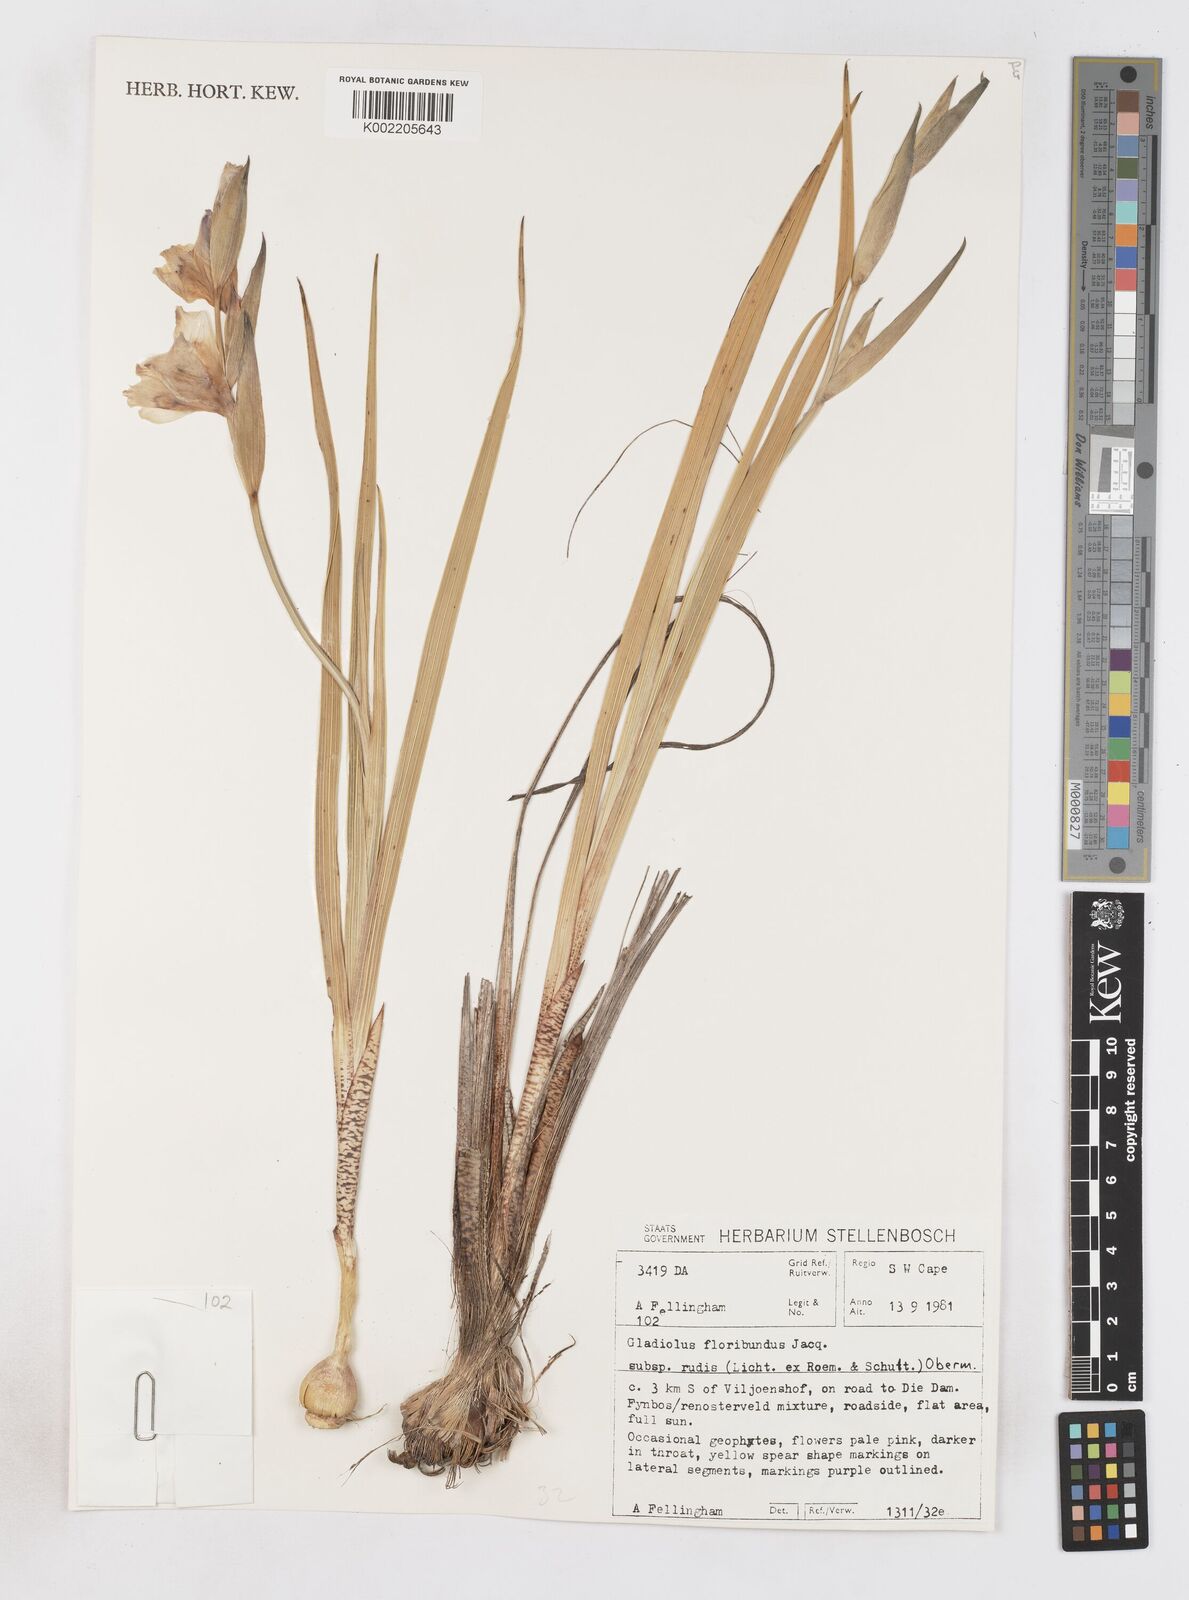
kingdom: Plantae
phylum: Tracheophyta
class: Liliopsida
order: Asparagales
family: Iridaceae
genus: Gladiolus
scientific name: Gladiolus rudis
